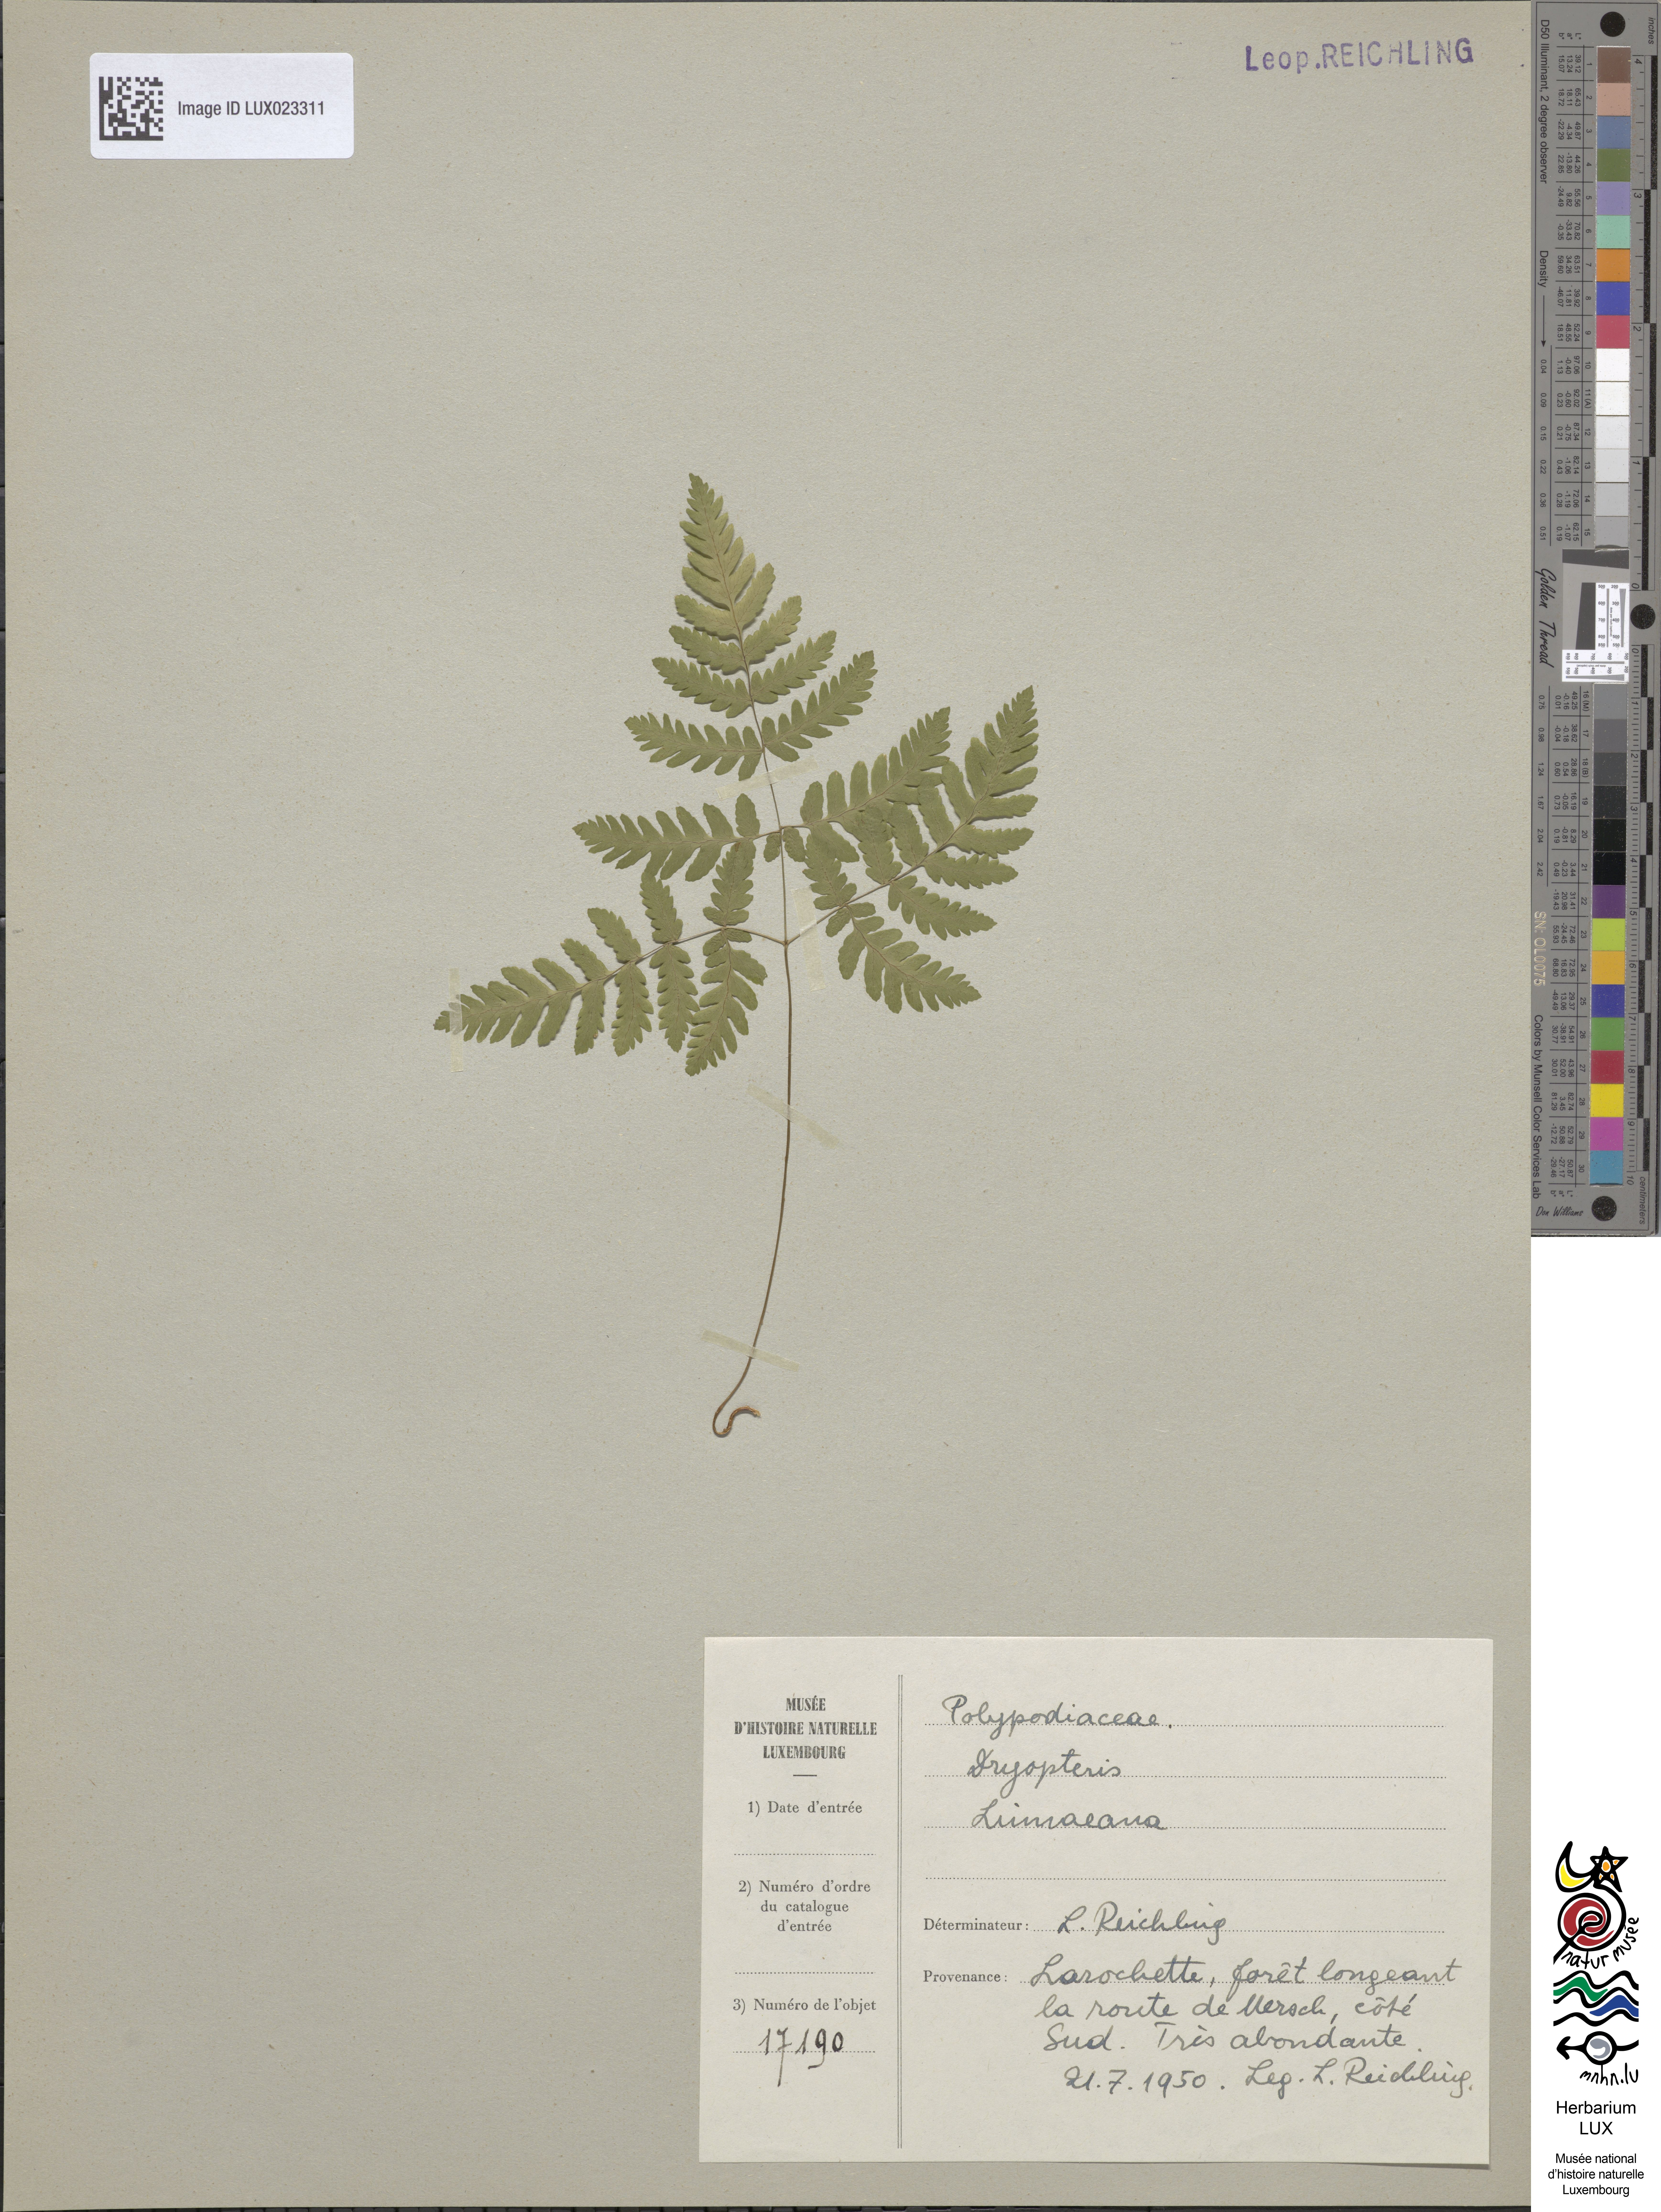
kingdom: Plantae
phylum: Tracheophyta
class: Polypodiopsida
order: Polypodiales
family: Cystopteridaceae
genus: Gymnocarpium
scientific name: Gymnocarpium dryopteris
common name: Oak fern
